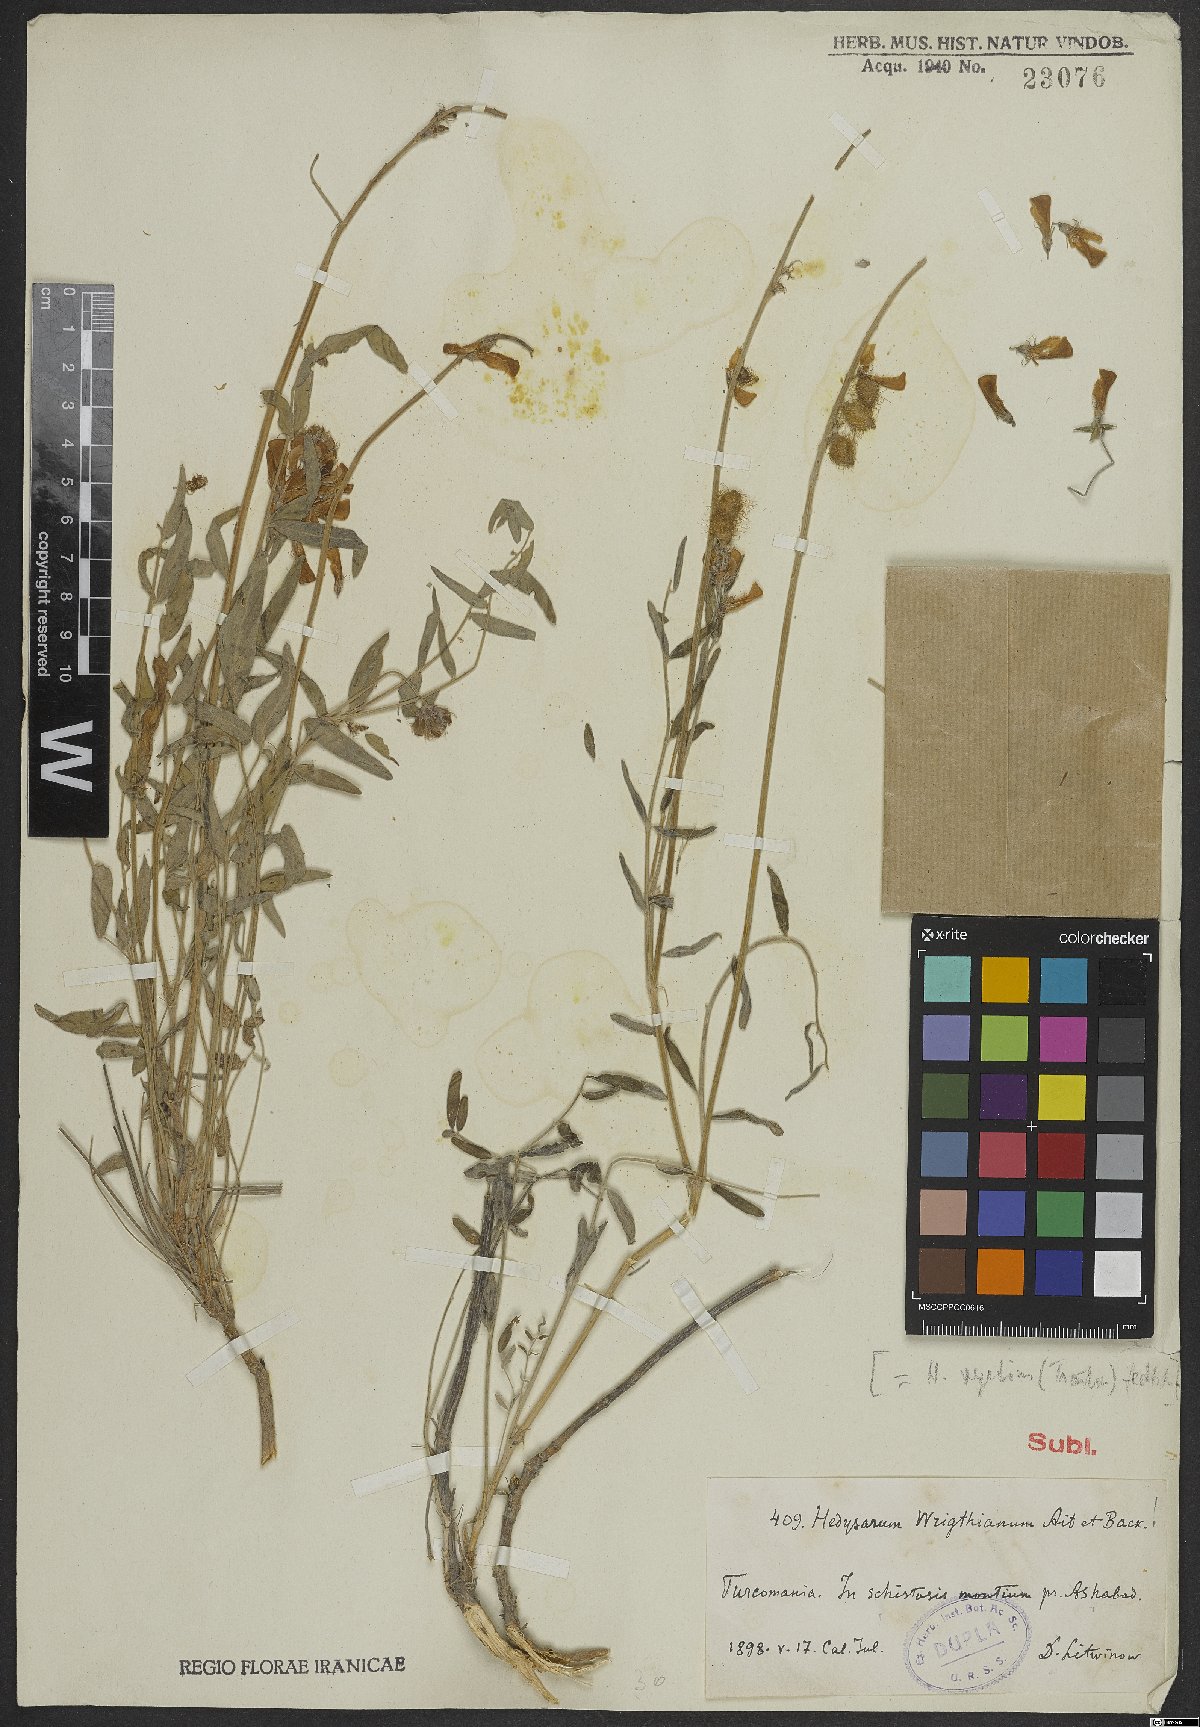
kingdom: Plantae
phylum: Tracheophyta
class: Magnoliopsida
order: Fabales
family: Fabaceae
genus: Hedysarum
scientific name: Hedysarum micropterum
